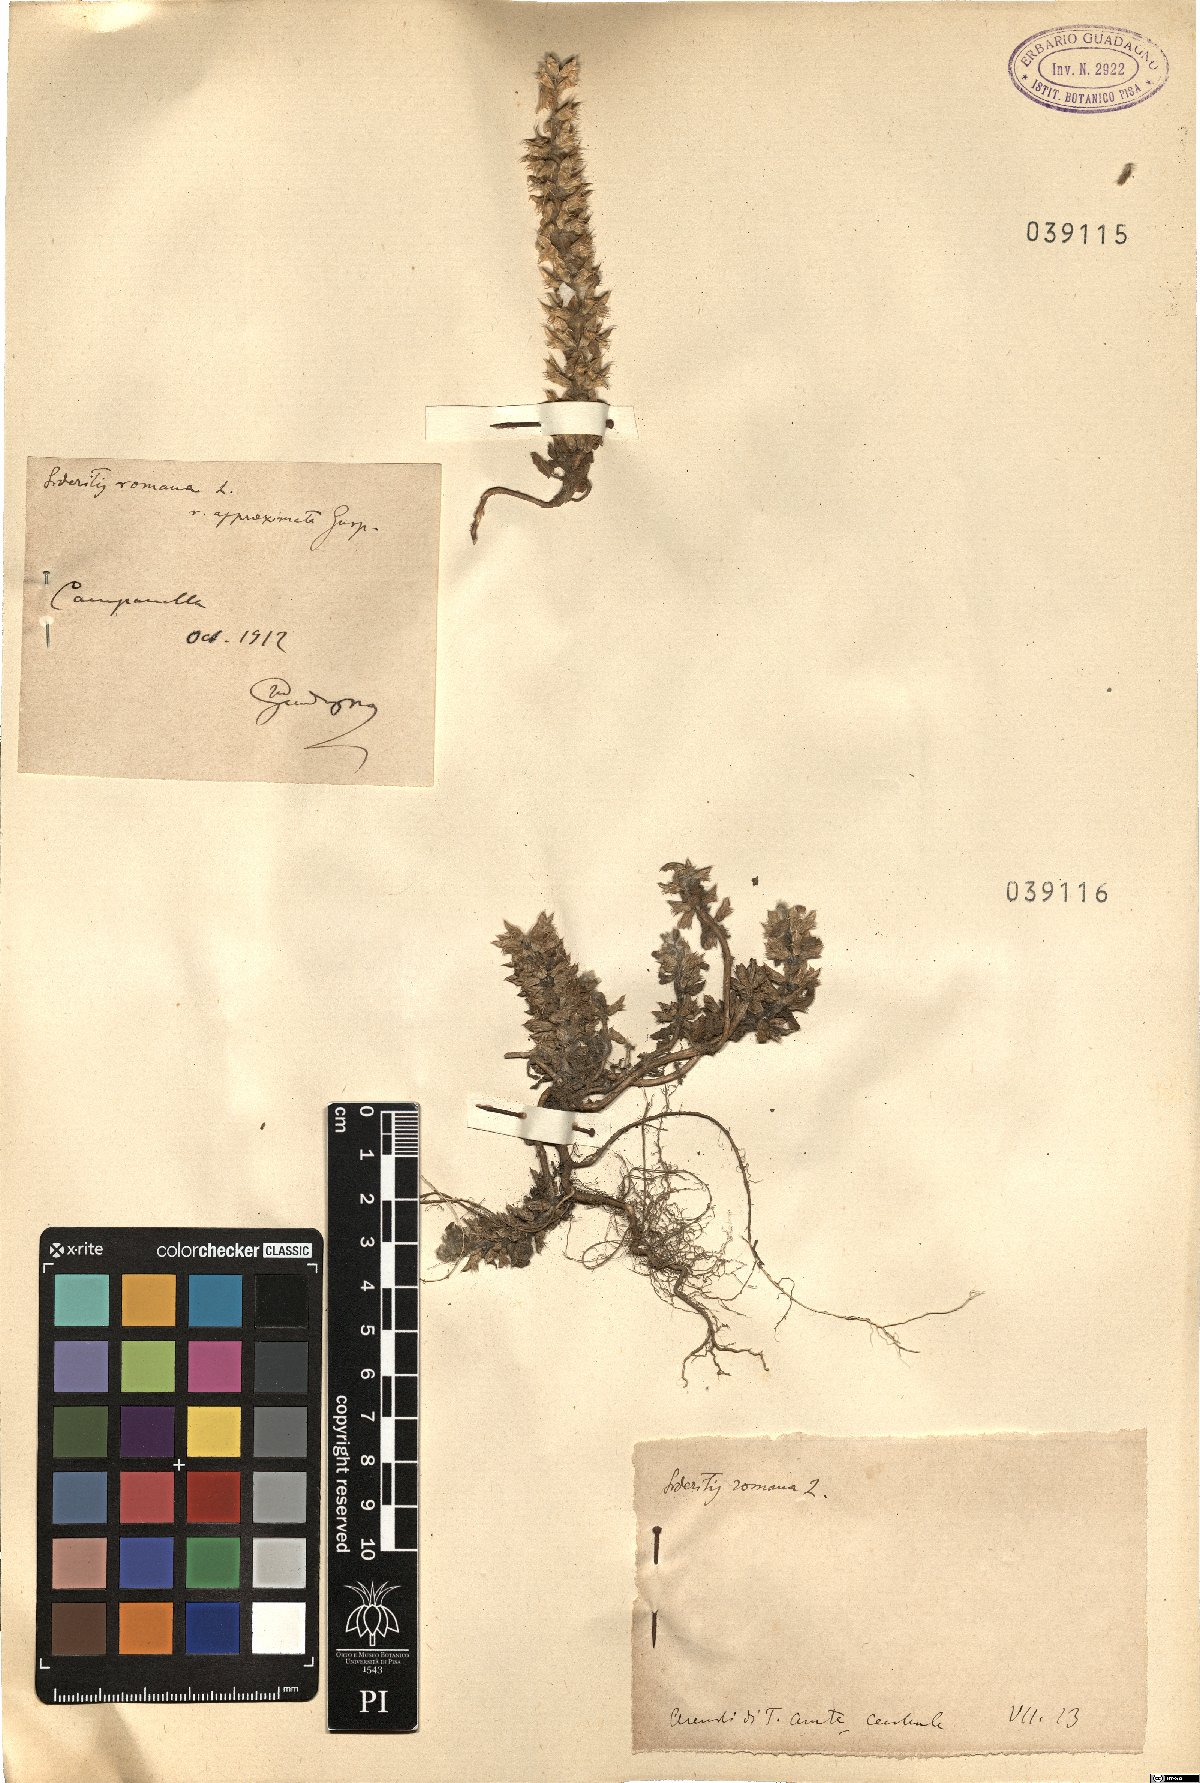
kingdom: Plantae
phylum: Tracheophyta
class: Magnoliopsida
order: Lamiales
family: Lamiaceae
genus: Sideritis
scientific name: Sideritis romana
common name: Simplebeak ironwort
